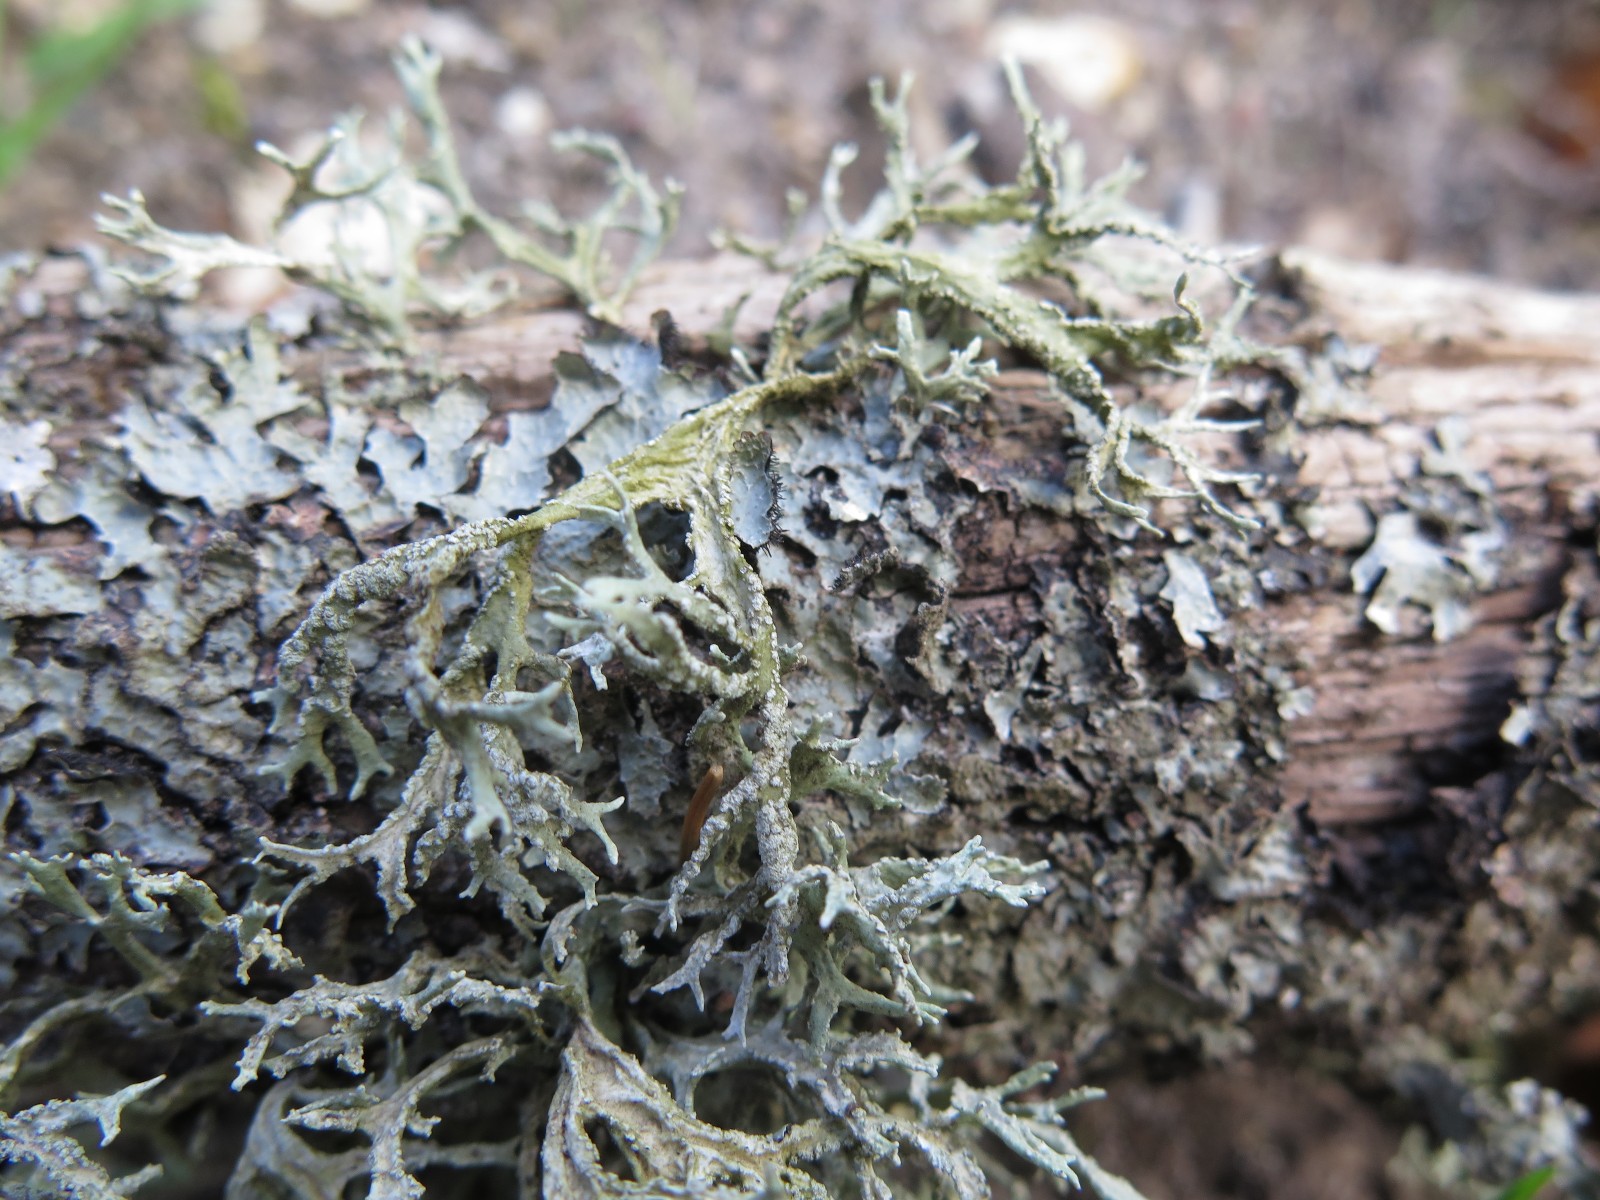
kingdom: Fungi
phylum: Ascomycota
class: Lecanoromycetes
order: Lecanorales
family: Parmeliaceae
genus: Evernia
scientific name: Evernia prunastri
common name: almindelig slåenlav
